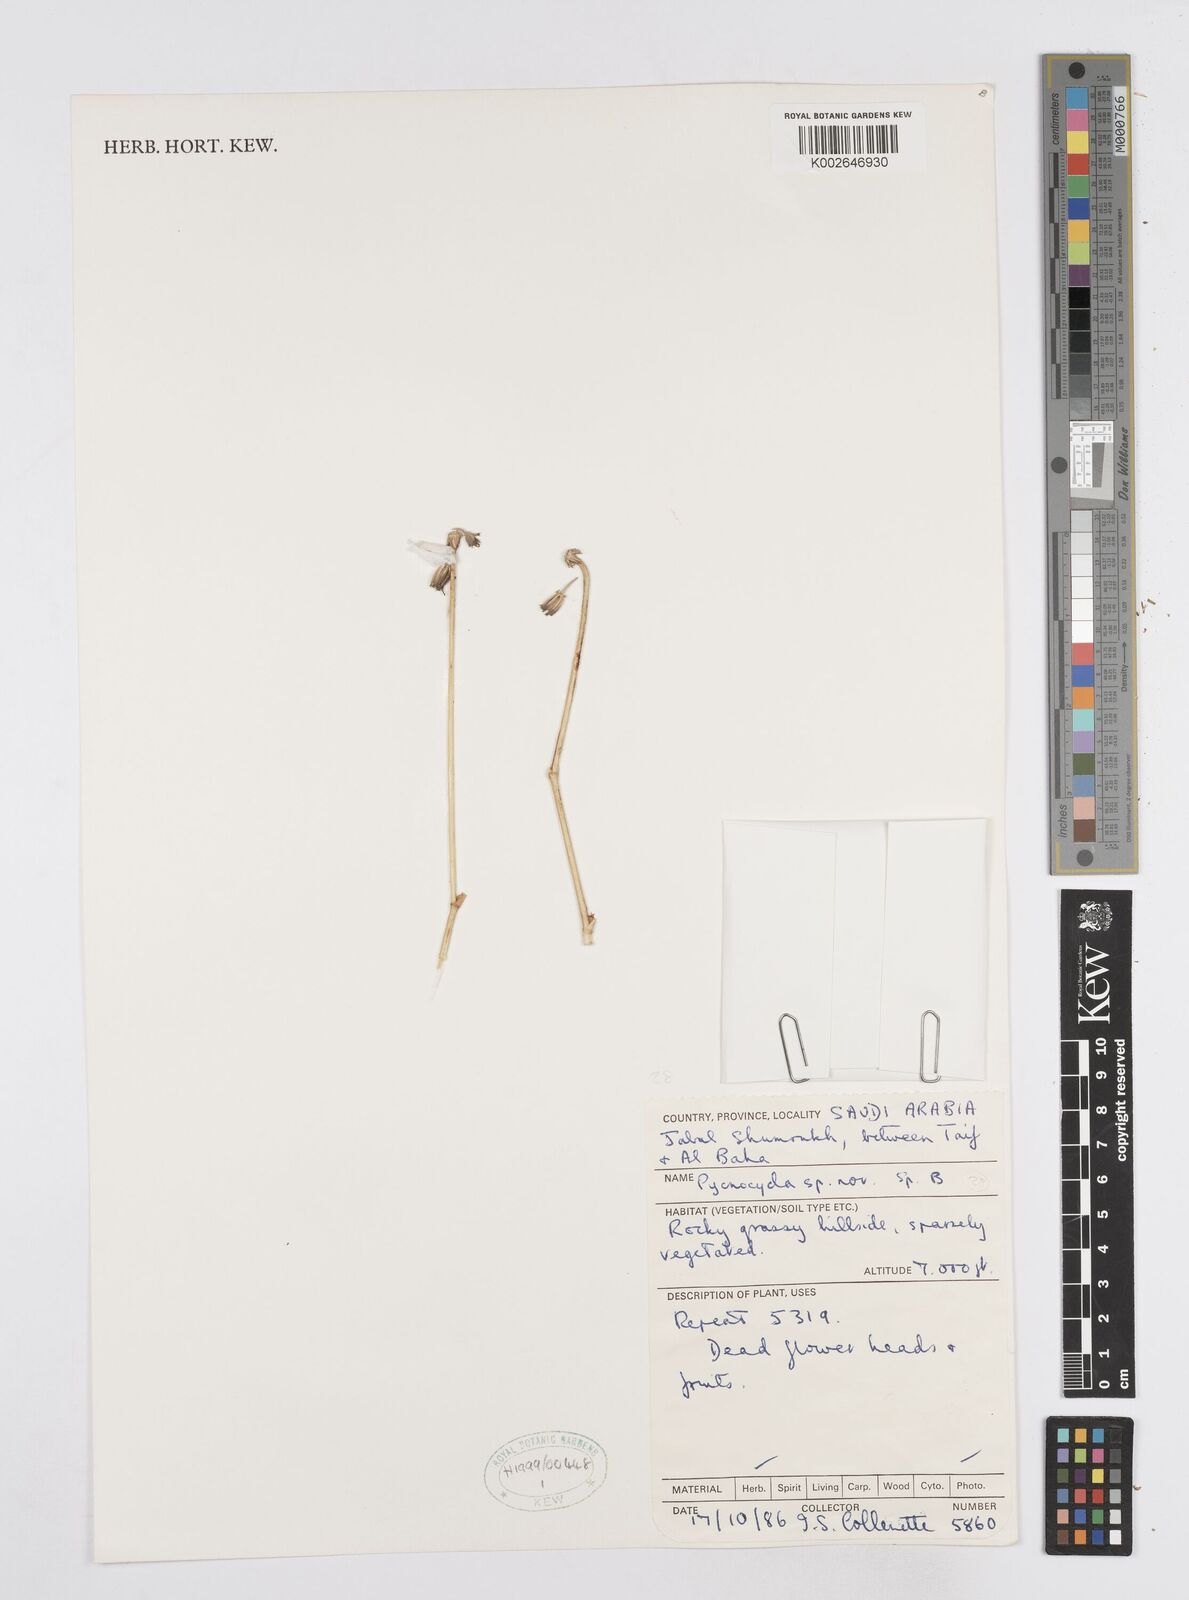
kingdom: Plantae
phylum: Tracheophyta
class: Magnoliopsida
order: Apiales
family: Apiaceae
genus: Pycnocycla
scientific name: Pycnocycla
